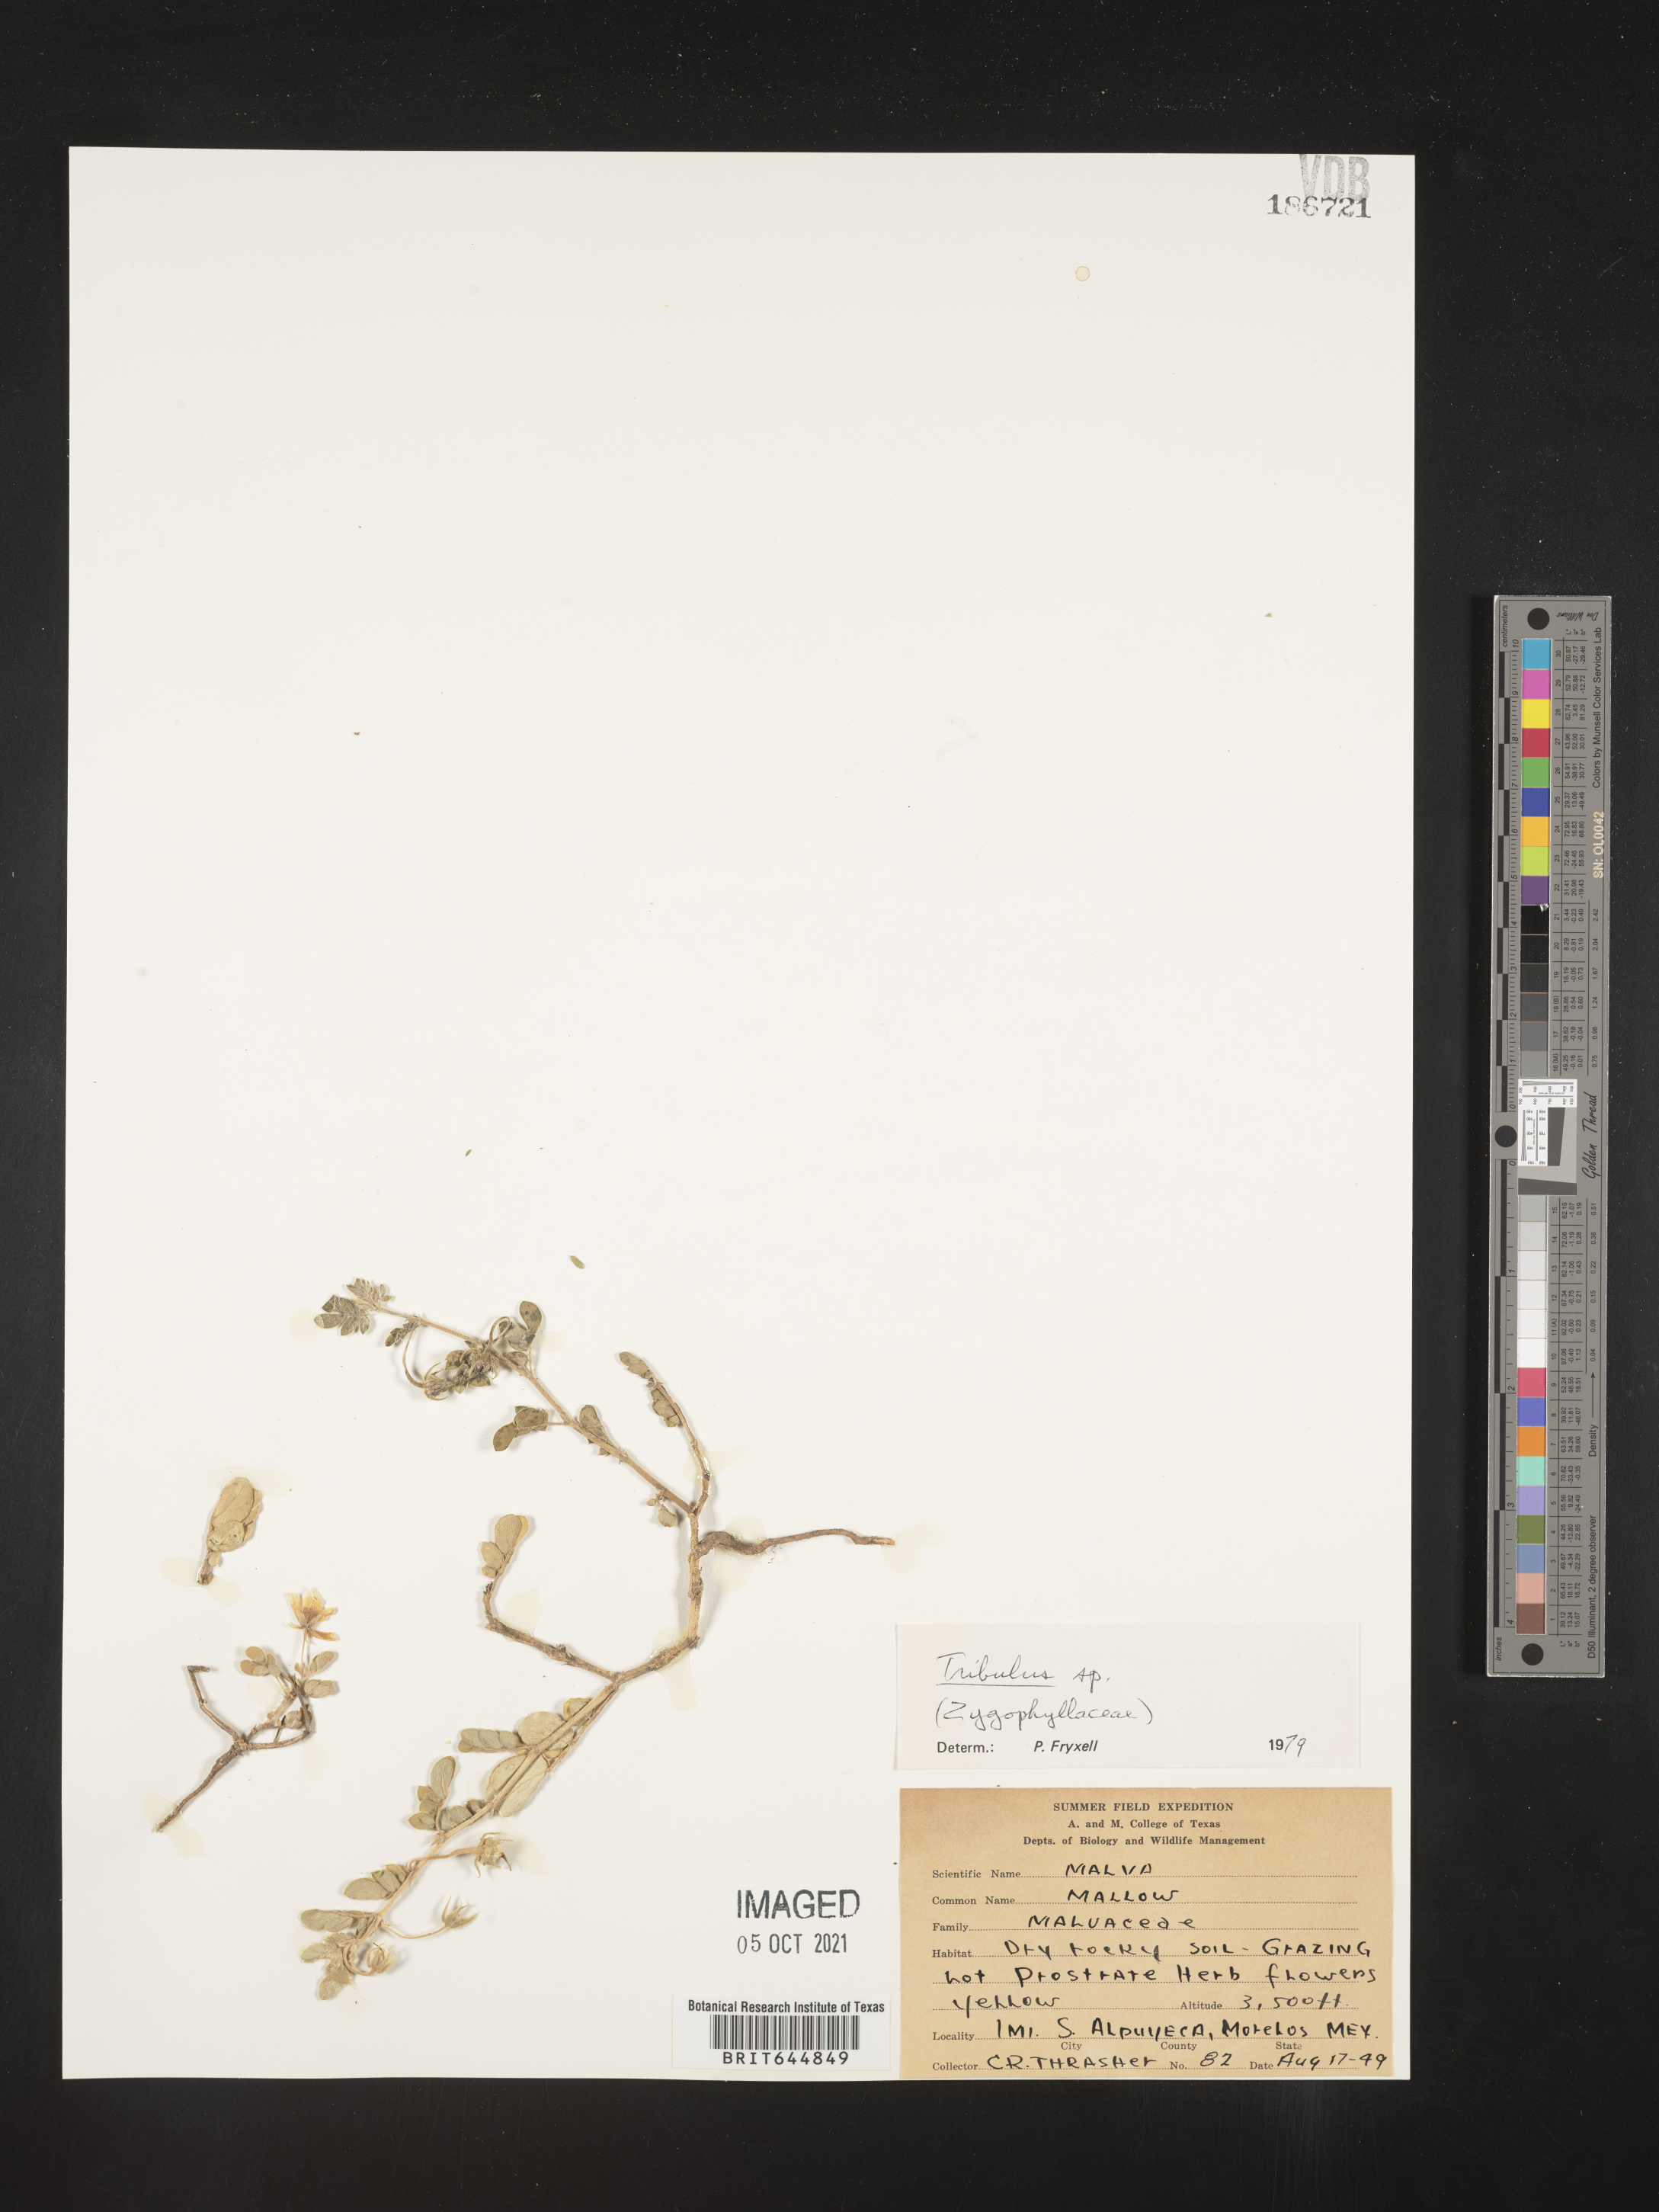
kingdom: Plantae
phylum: Tracheophyta
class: Magnoliopsida
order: Zygophyllales
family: Zygophyllaceae
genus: Tribulus
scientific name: Tribulus
